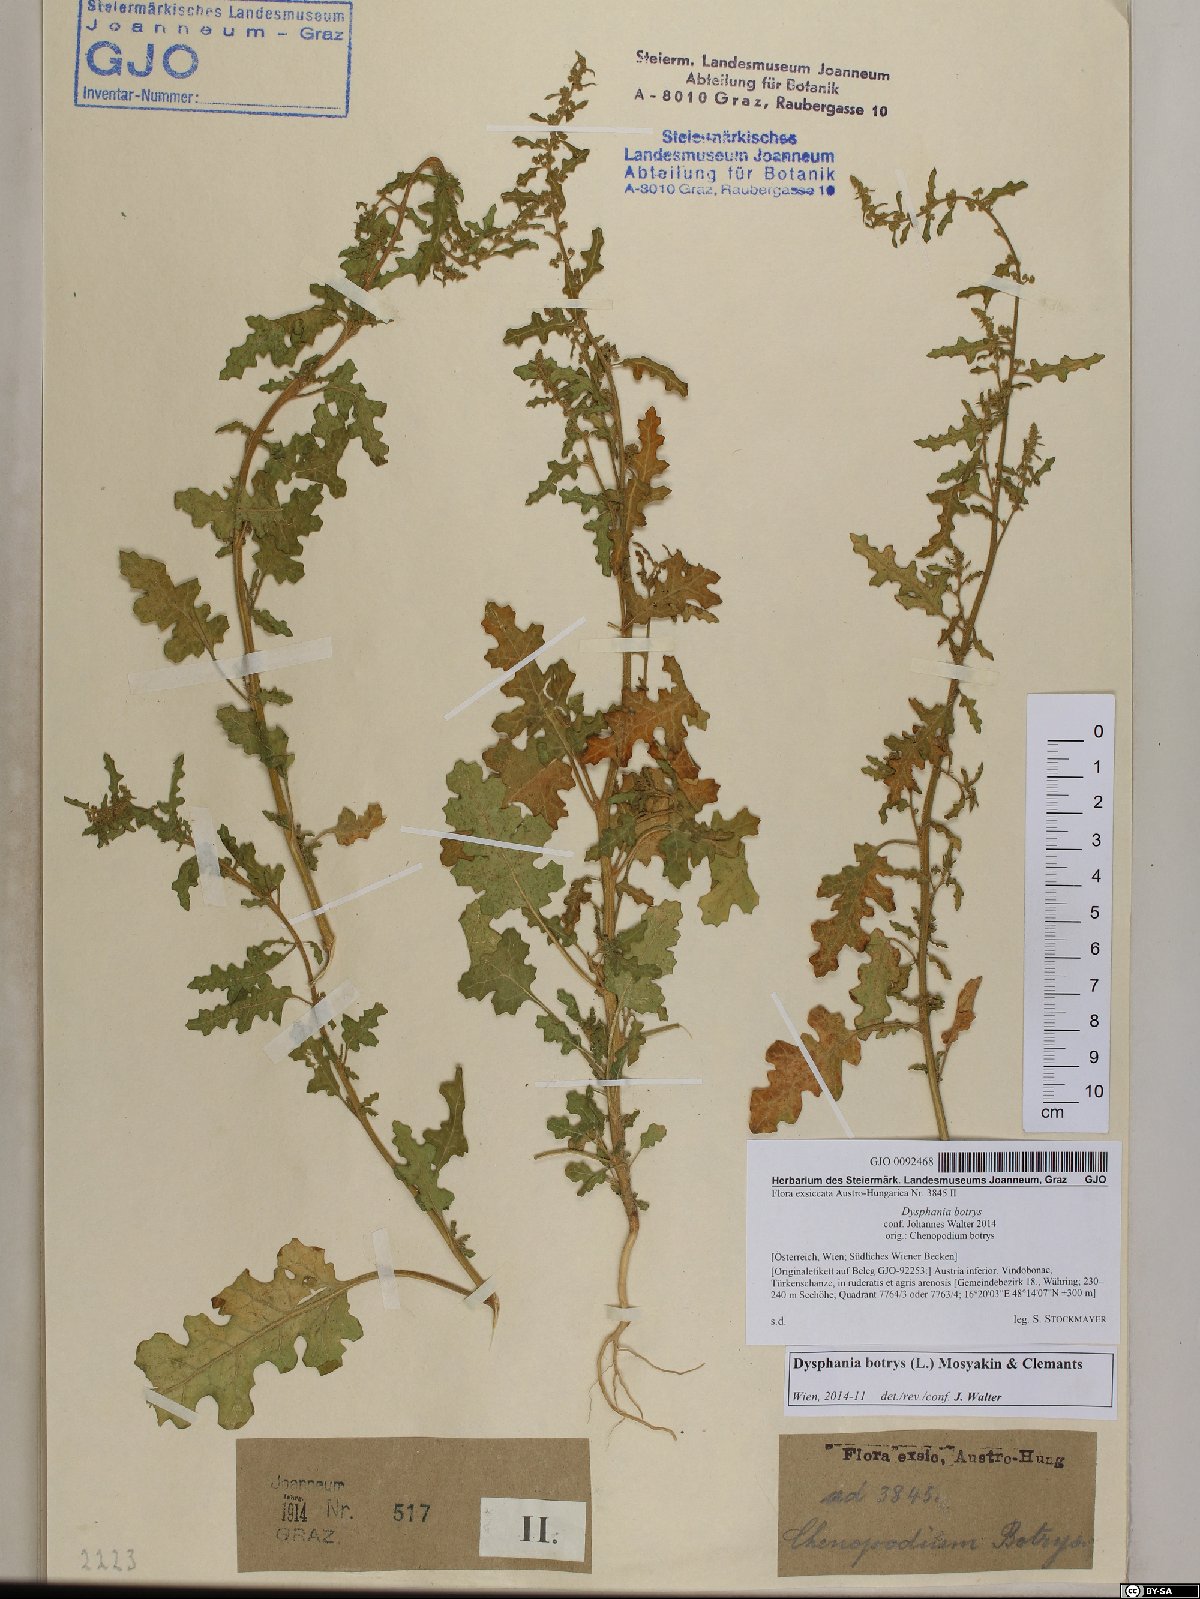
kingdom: Plantae
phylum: Tracheophyta
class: Magnoliopsida
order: Caryophyllales
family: Amaranthaceae
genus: Dysphania
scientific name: Dysphania botrys
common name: Feather-geranium
